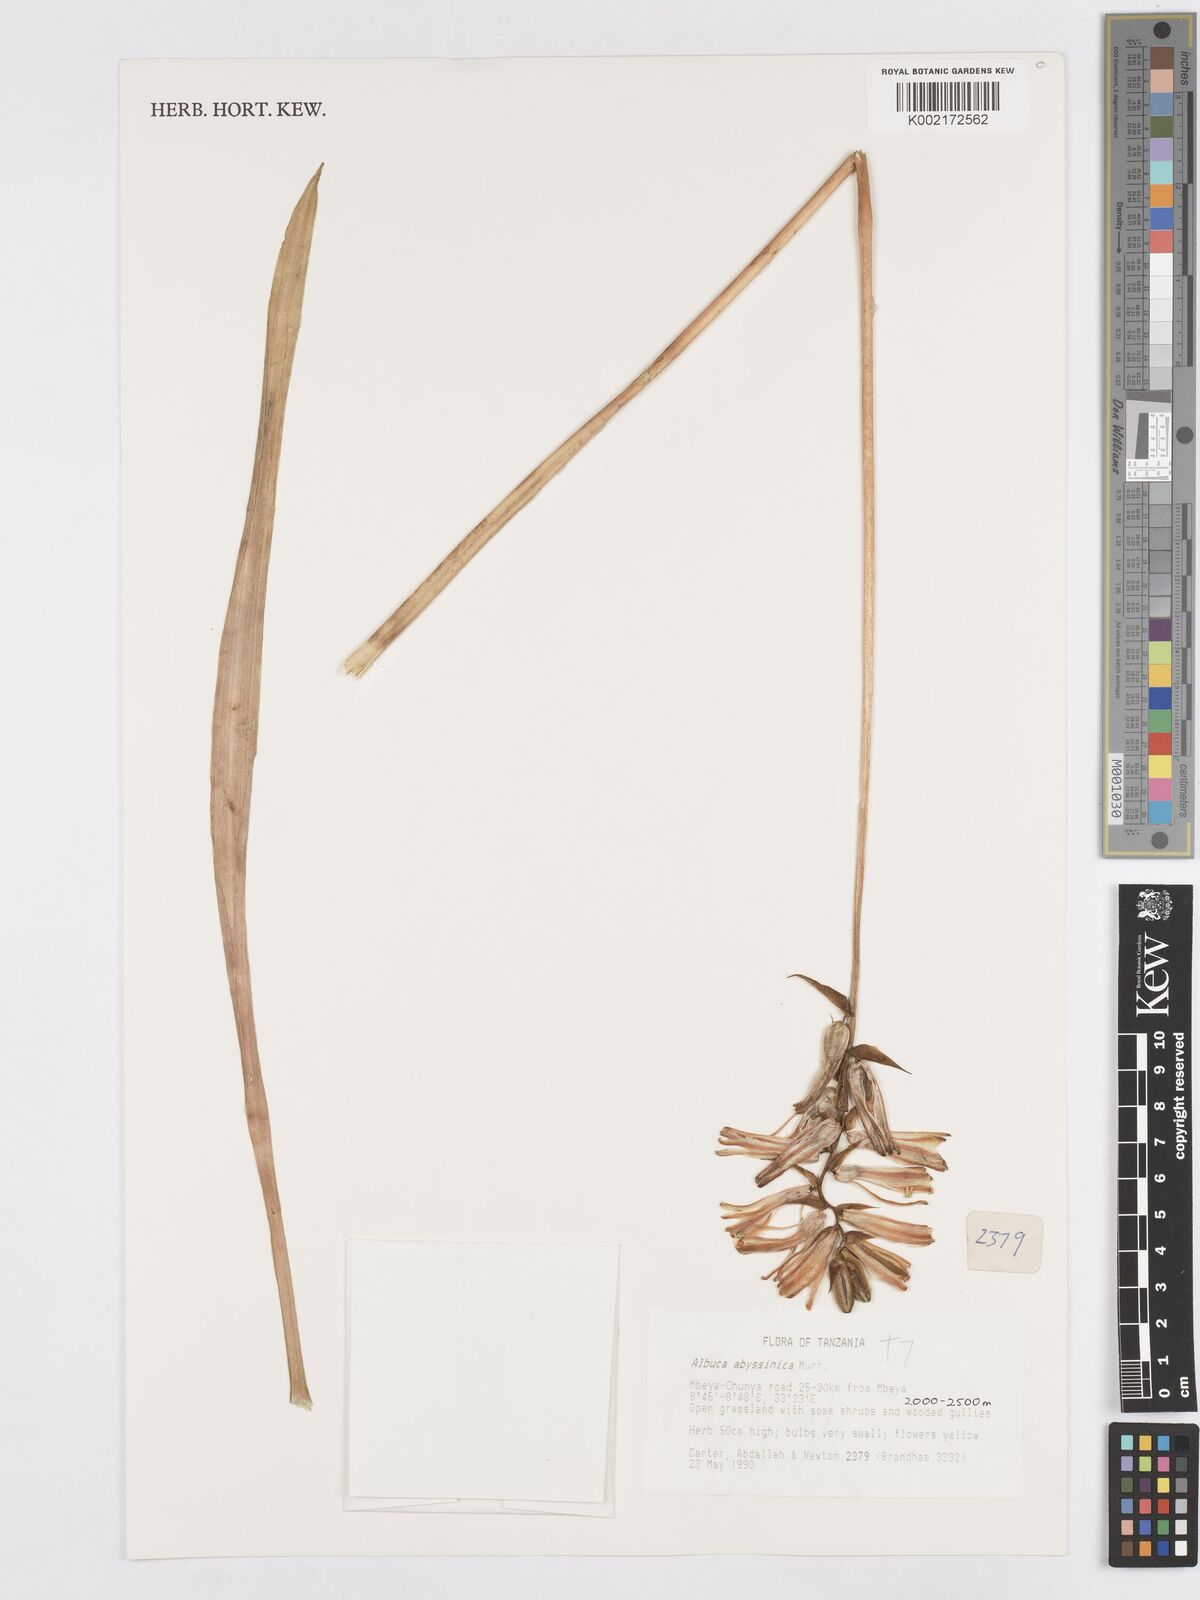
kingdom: Plantae
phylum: Tracheophyta
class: Liliopsida
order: Asparagales
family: Asparagaceae
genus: Albuca
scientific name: Albuca abyssinica
